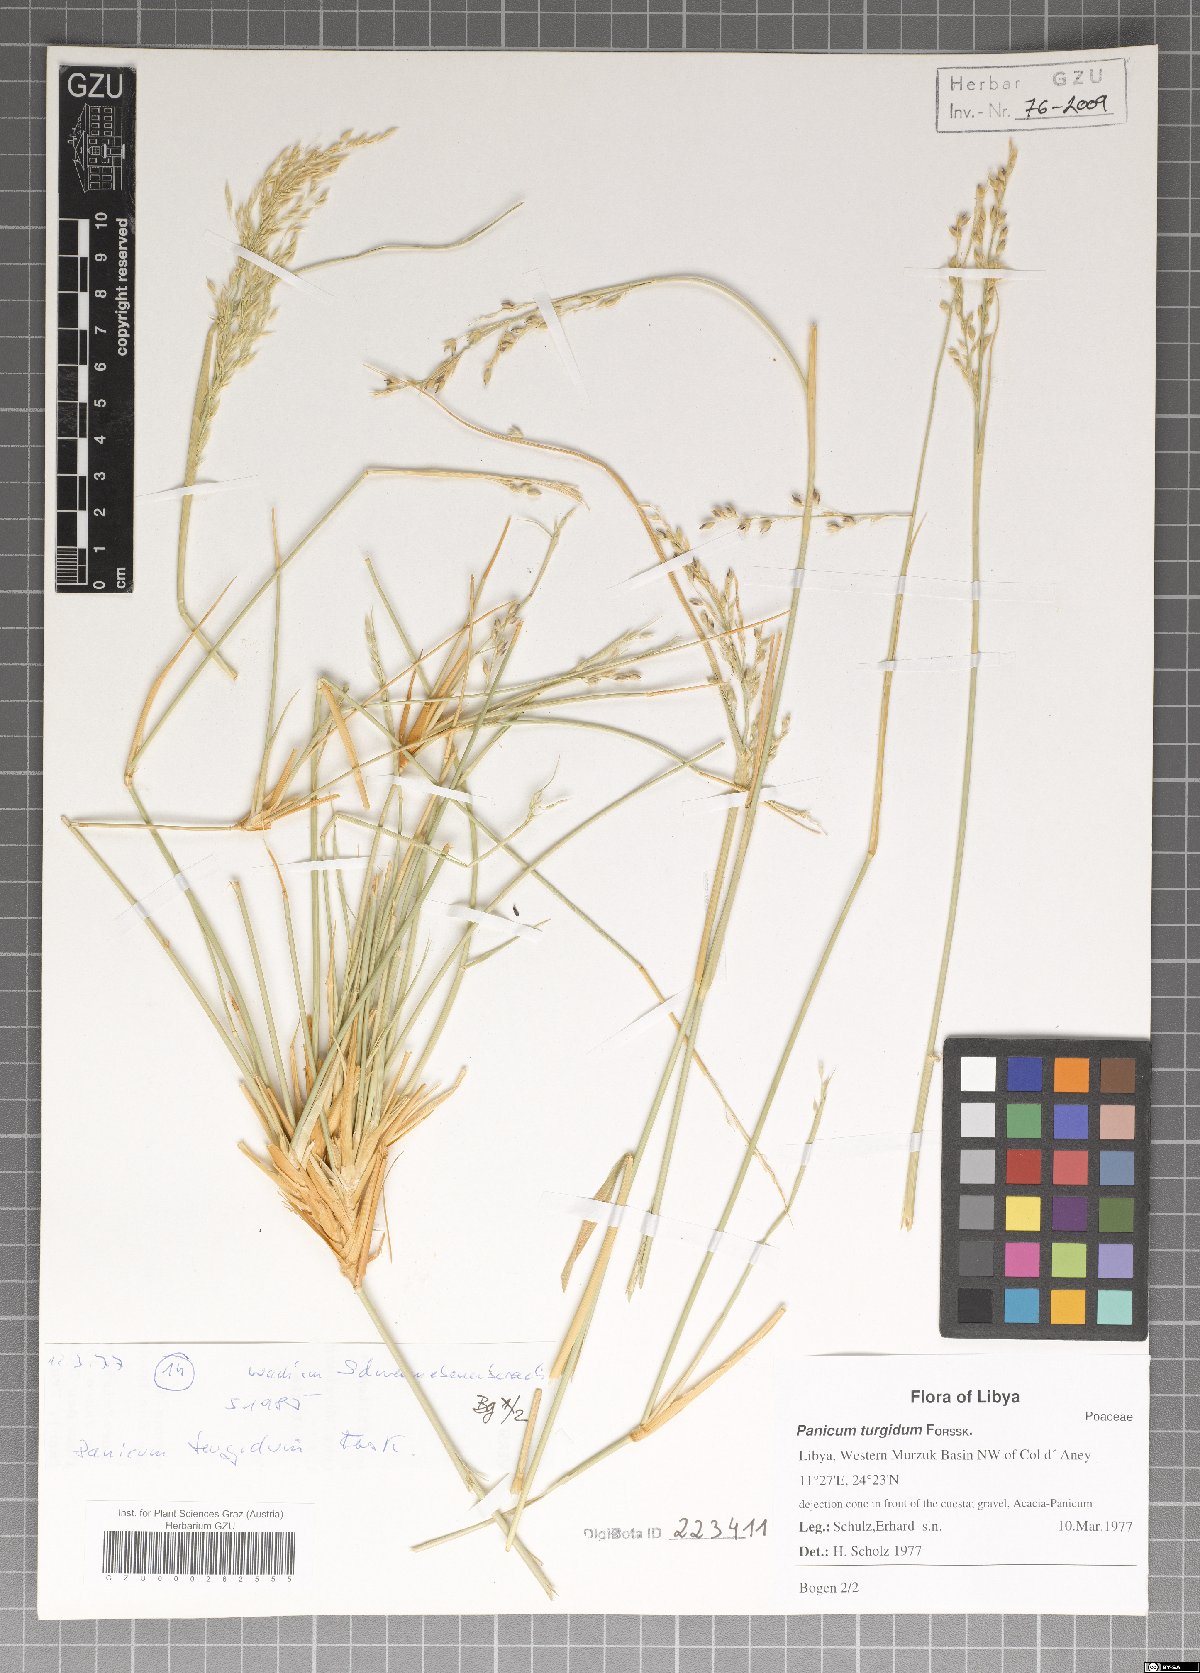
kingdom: Plantae
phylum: Tracheophyta
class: Liliopsida
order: Poales
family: Poaceae
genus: Panicum
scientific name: Panicum turgidum
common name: Desert grass
